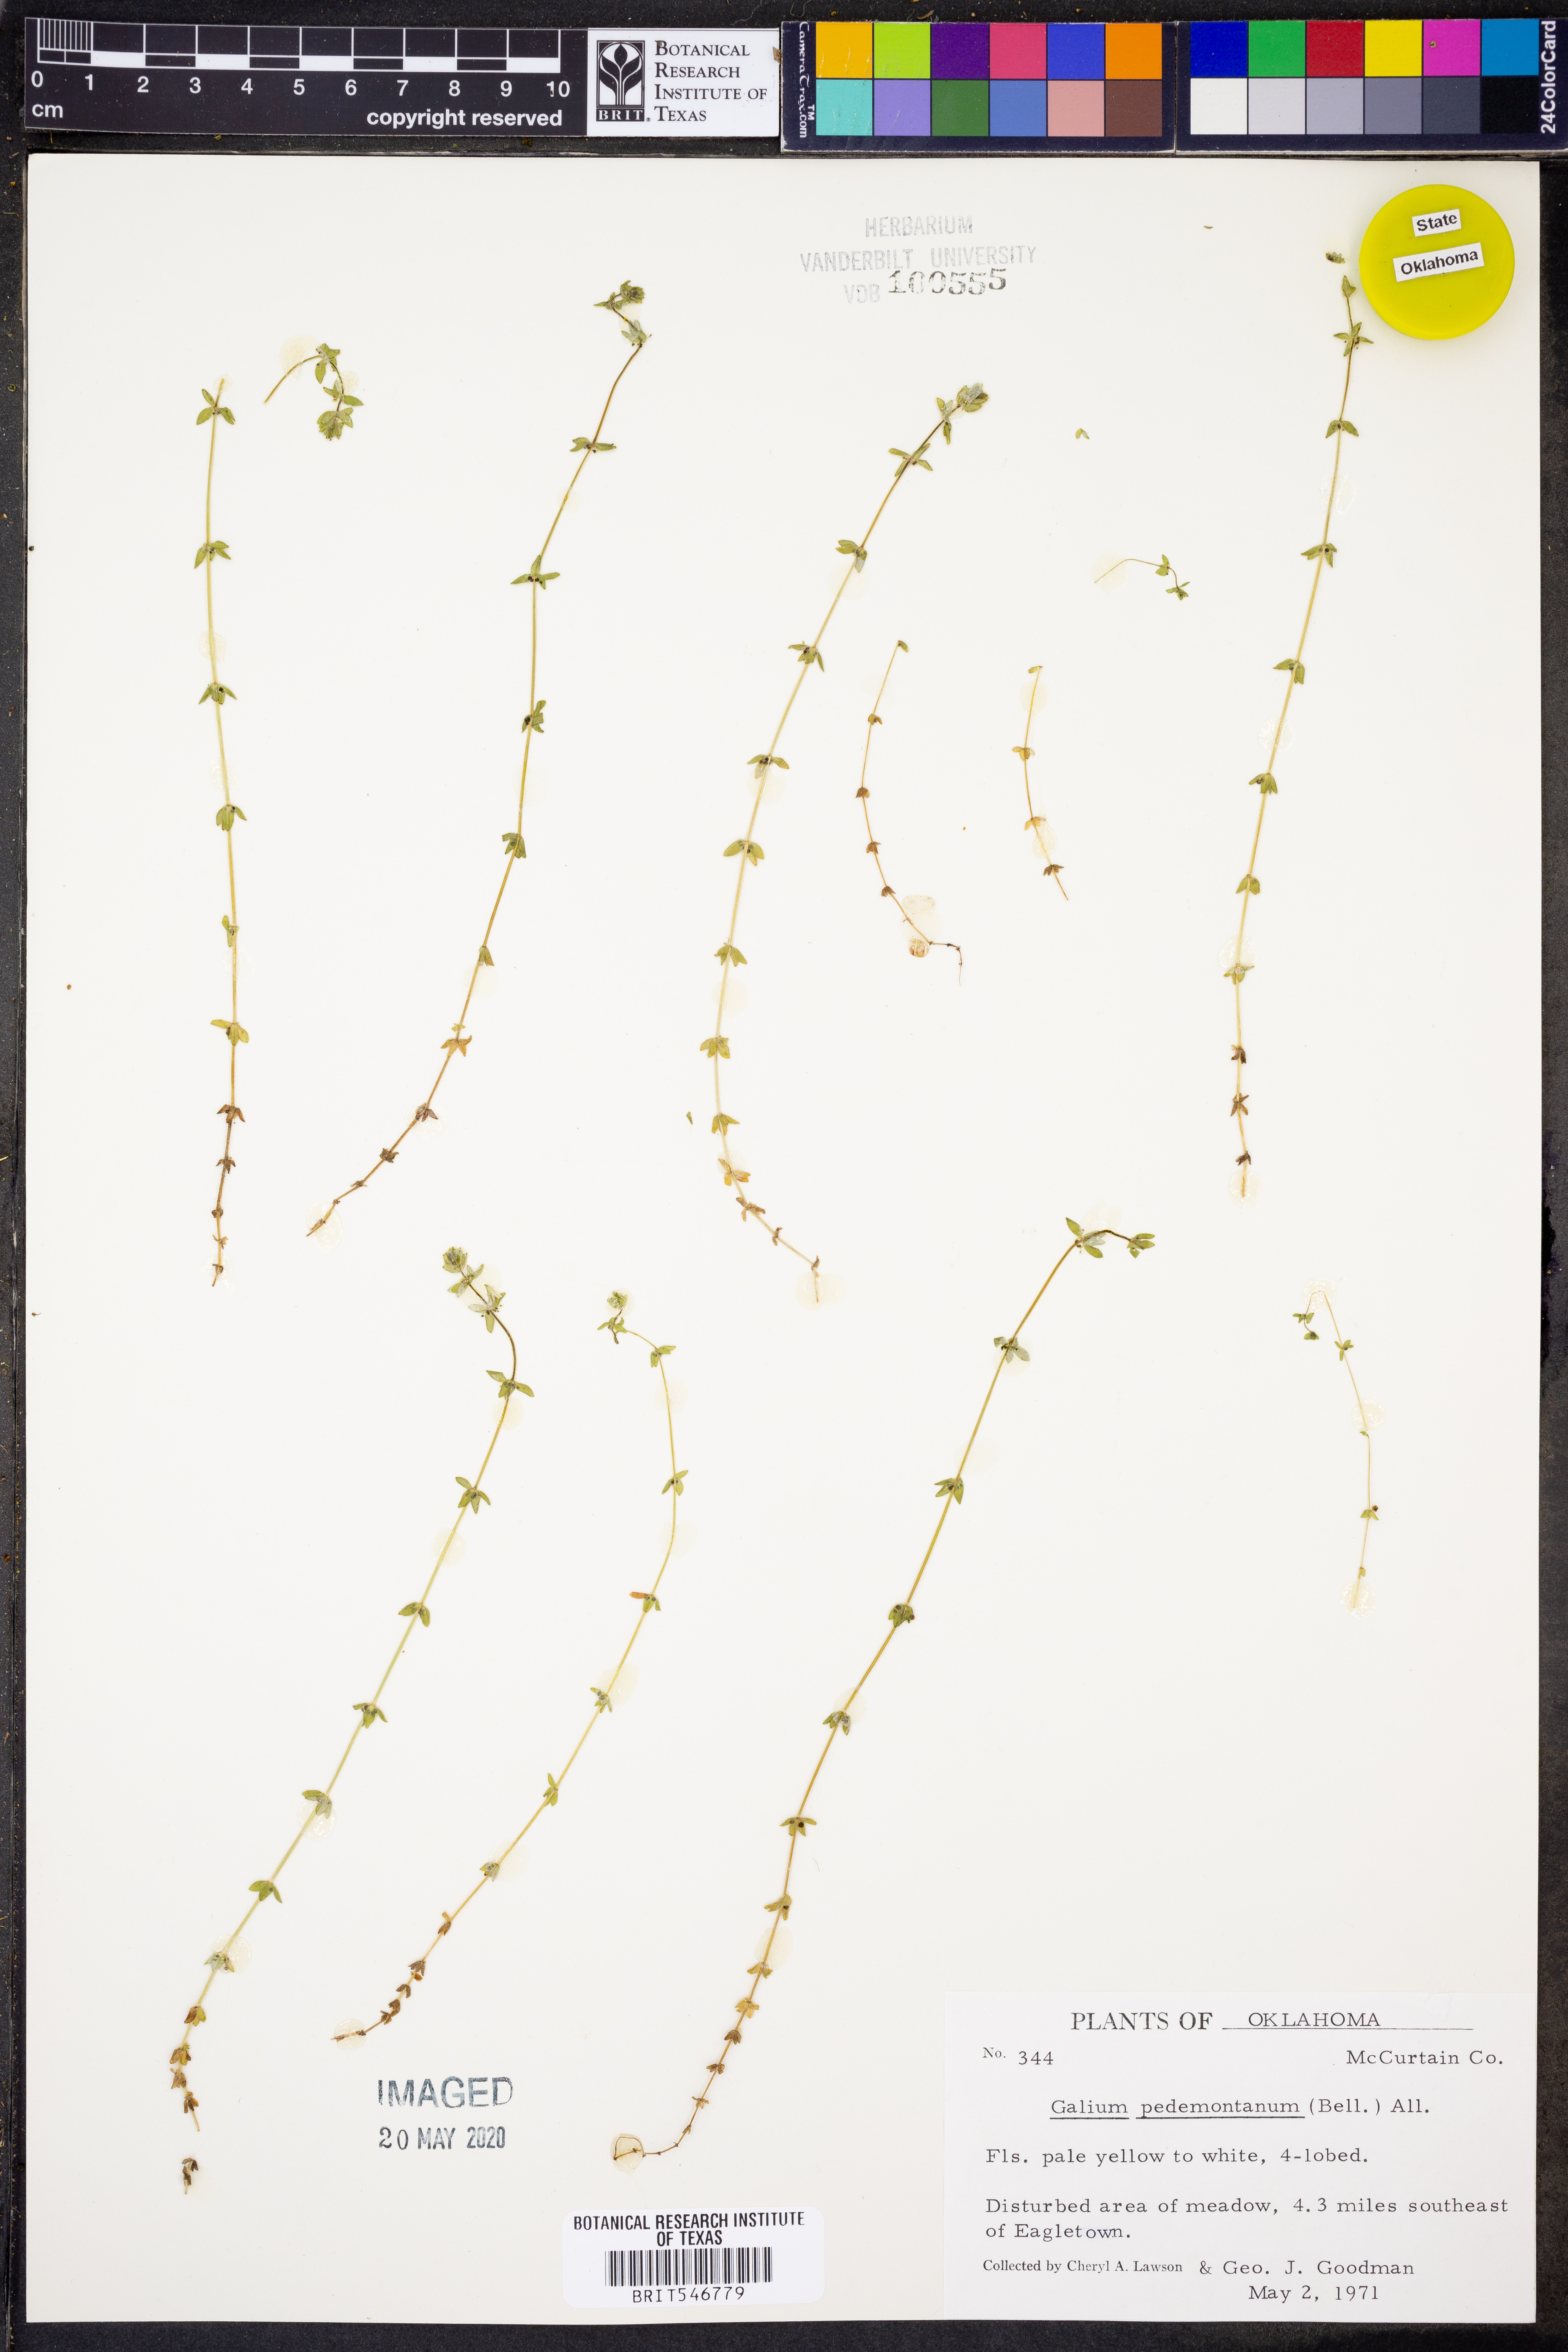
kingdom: Plantae
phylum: Tracheophyta
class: Magnoliopsida
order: Gentianales
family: Rubiaceae
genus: Cruciata
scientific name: Cruciata pedemontana
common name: Piedmont bedstraw
